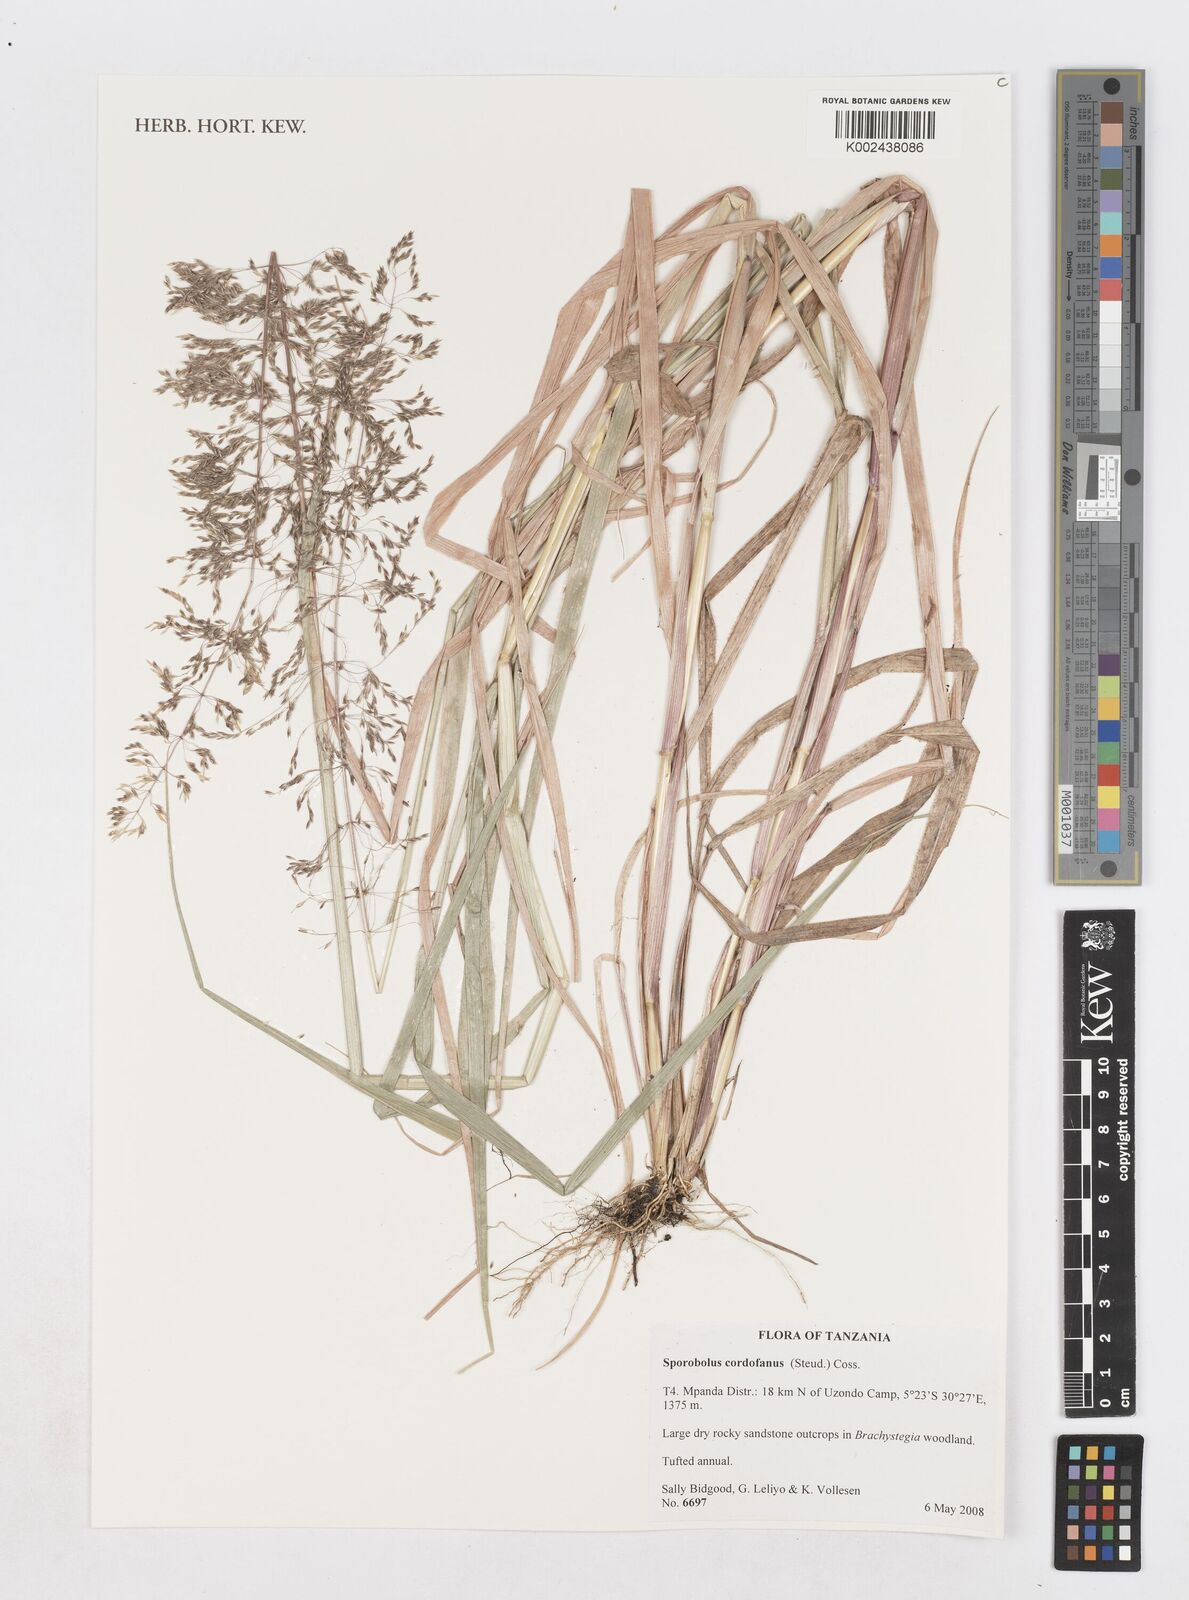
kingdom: Plantae
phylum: Tracheophyta
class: Liliopsida
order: Poales
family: Poaceae
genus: Sporobolus
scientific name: Sporobolus cordofanus
